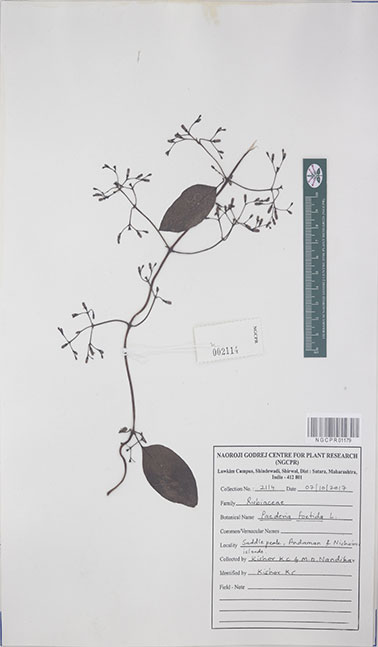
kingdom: Plantae
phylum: Tracheophyta
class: Magnoliopsida
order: Gentianales
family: Rubiaceae
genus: Paederia
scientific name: Paederia foetida
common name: Stinkvine
